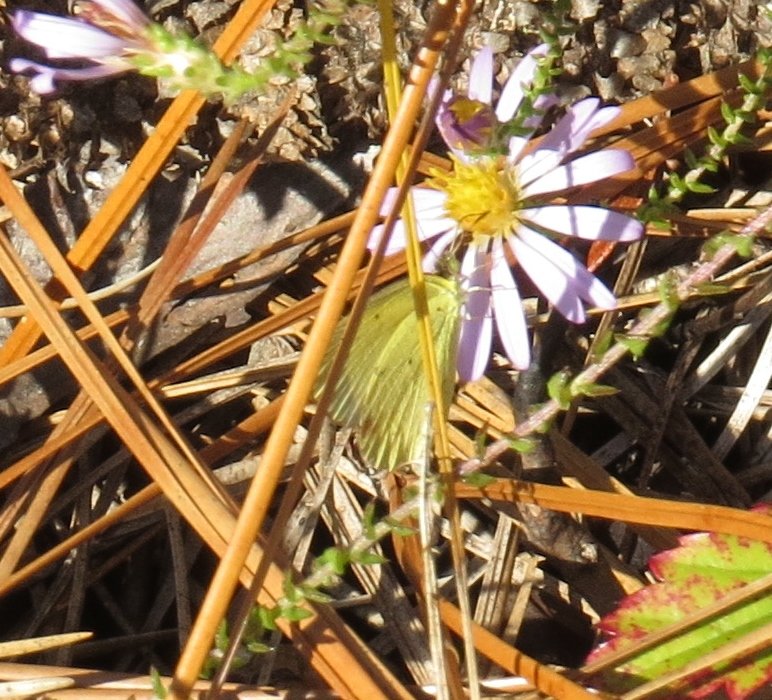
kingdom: Animalia
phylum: Arthropoda
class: Insecta
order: Lepidoptera
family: Pieridae
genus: Pyrisitia
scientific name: Pyrisitia lisa
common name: Little Yellow
